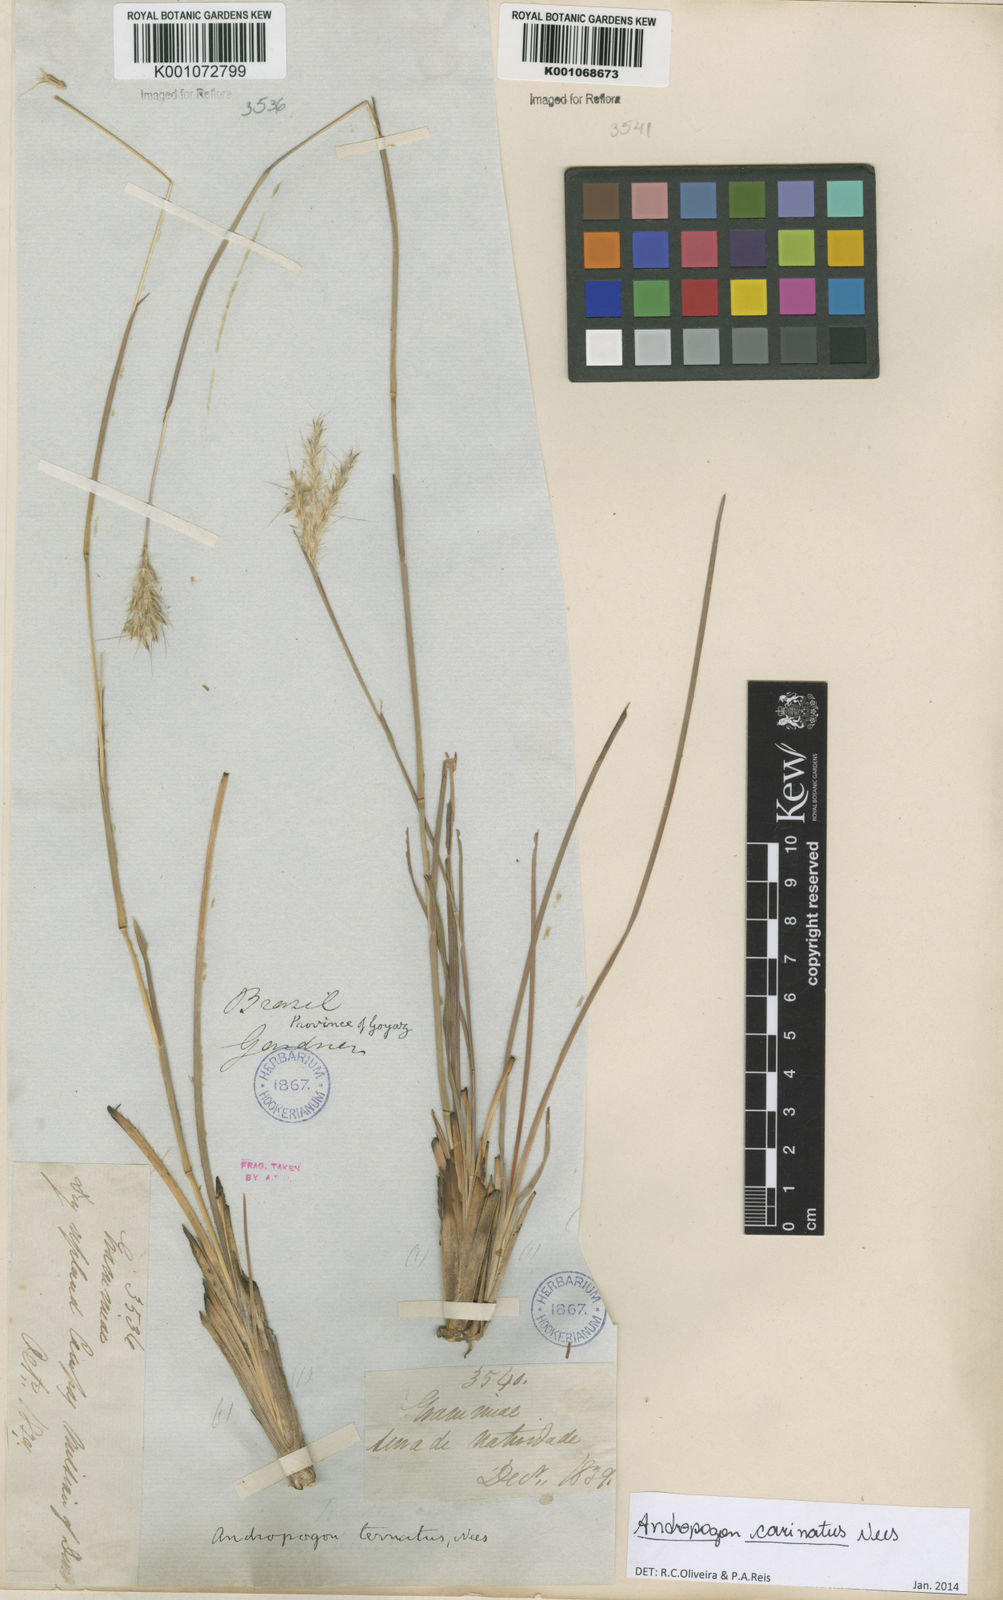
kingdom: Plantae
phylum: Tracheophyta
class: Liliopsida
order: Poales
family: Poaceae
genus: Andropogon
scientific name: Andropogon carinatus
